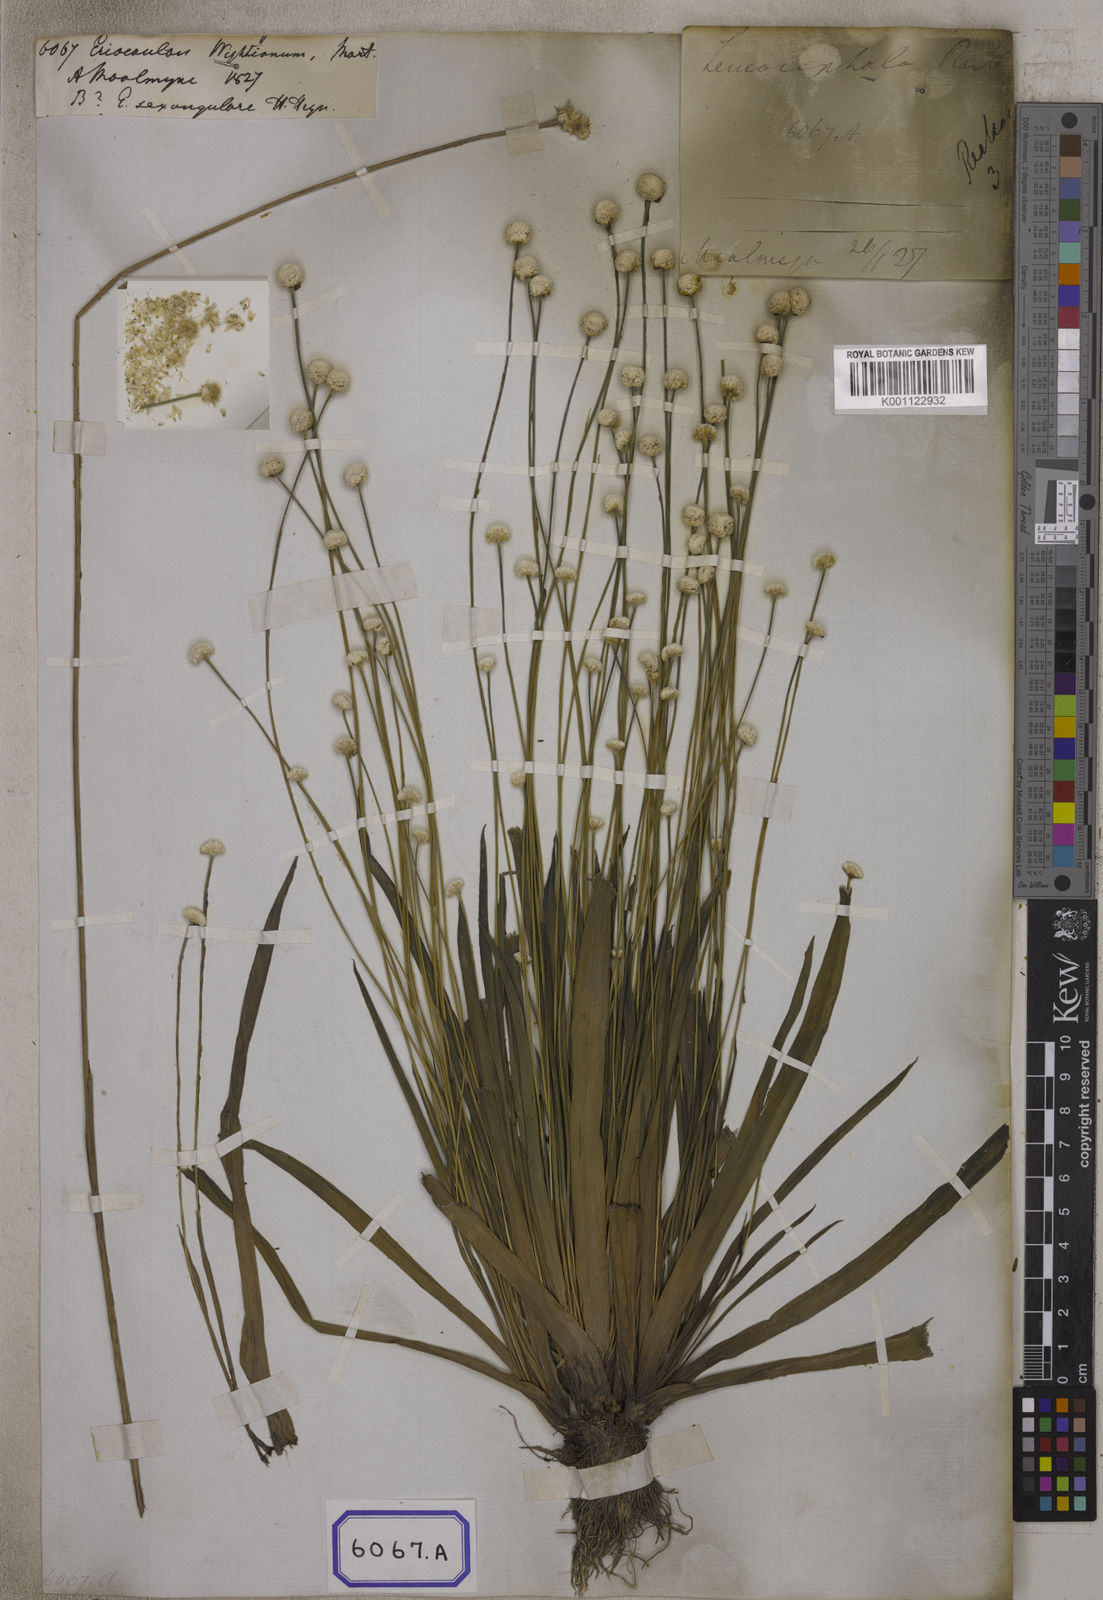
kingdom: Plantae
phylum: Tracheophyta
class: Liliopsida
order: Poales
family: Eriocaulaceae
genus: Eriocaulon
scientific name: Eriocaulon wightianum
